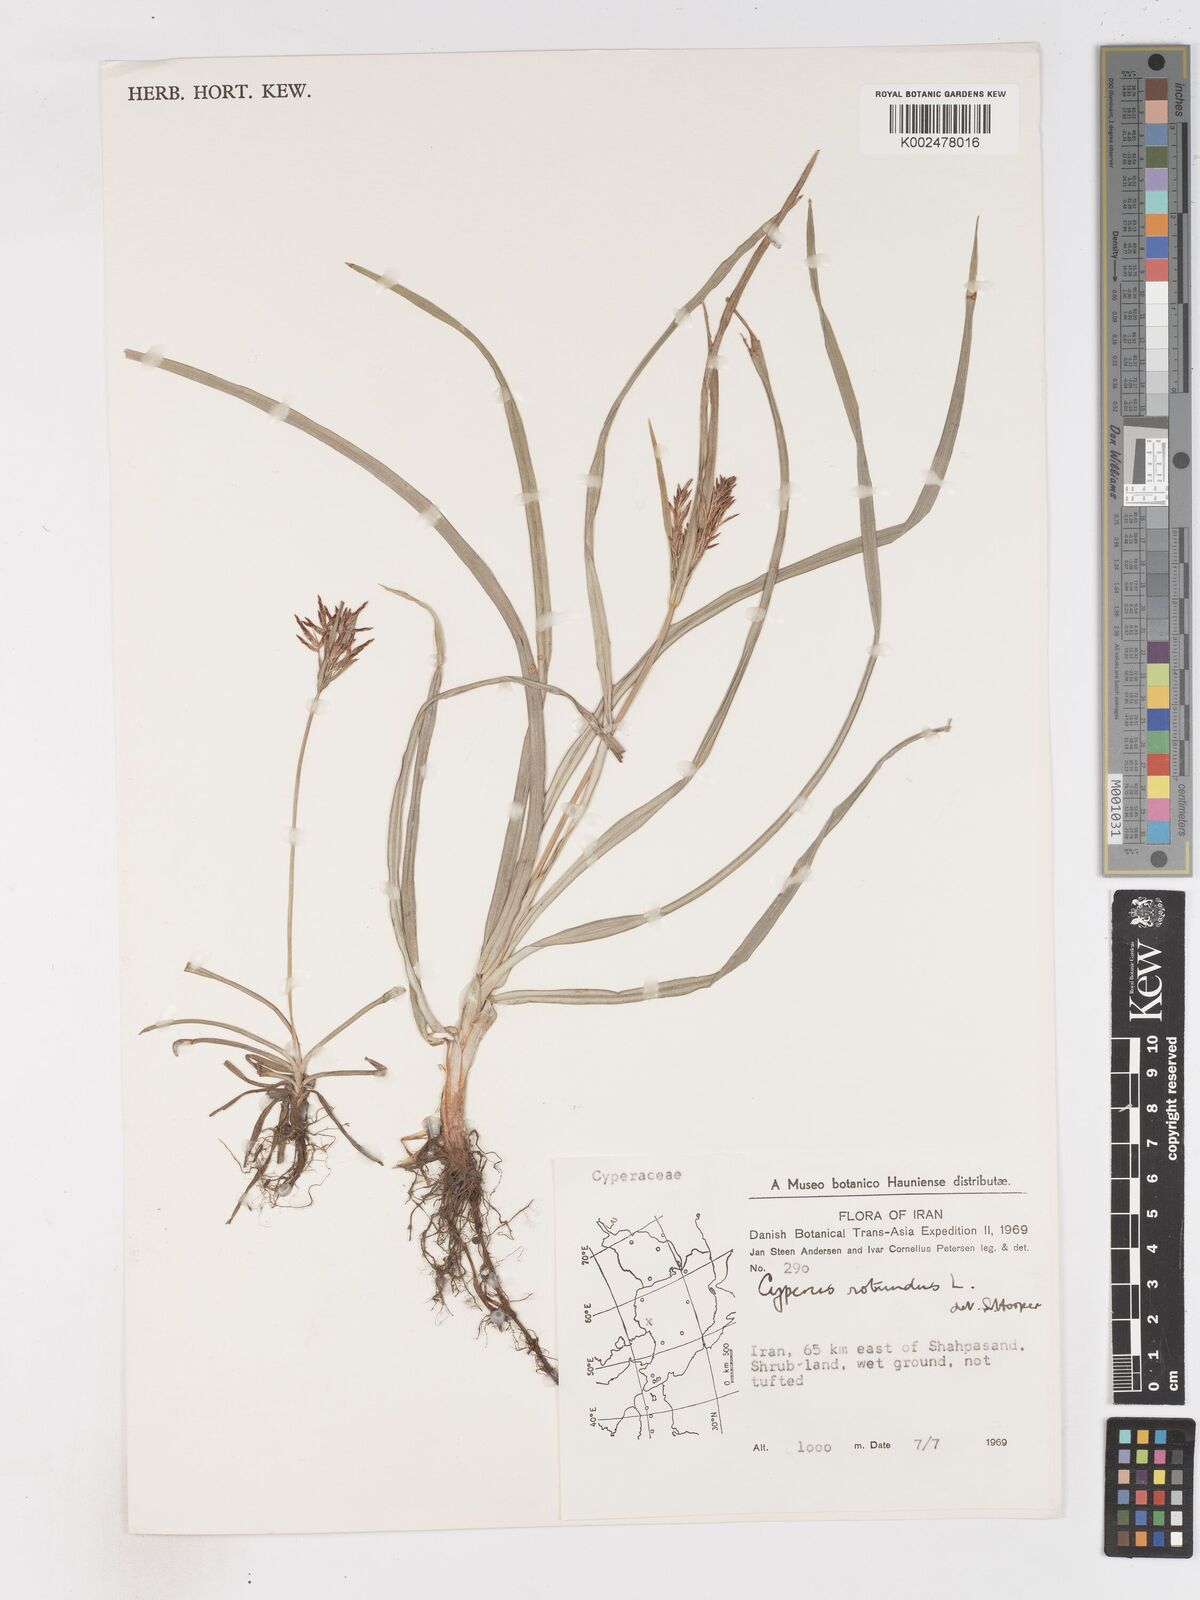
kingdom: Plantae
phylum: Tracheophyta
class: Liliopsida
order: Poales
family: Cyperaceae
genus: Cyperus
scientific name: Cyperus rotundus
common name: Nutgrass
